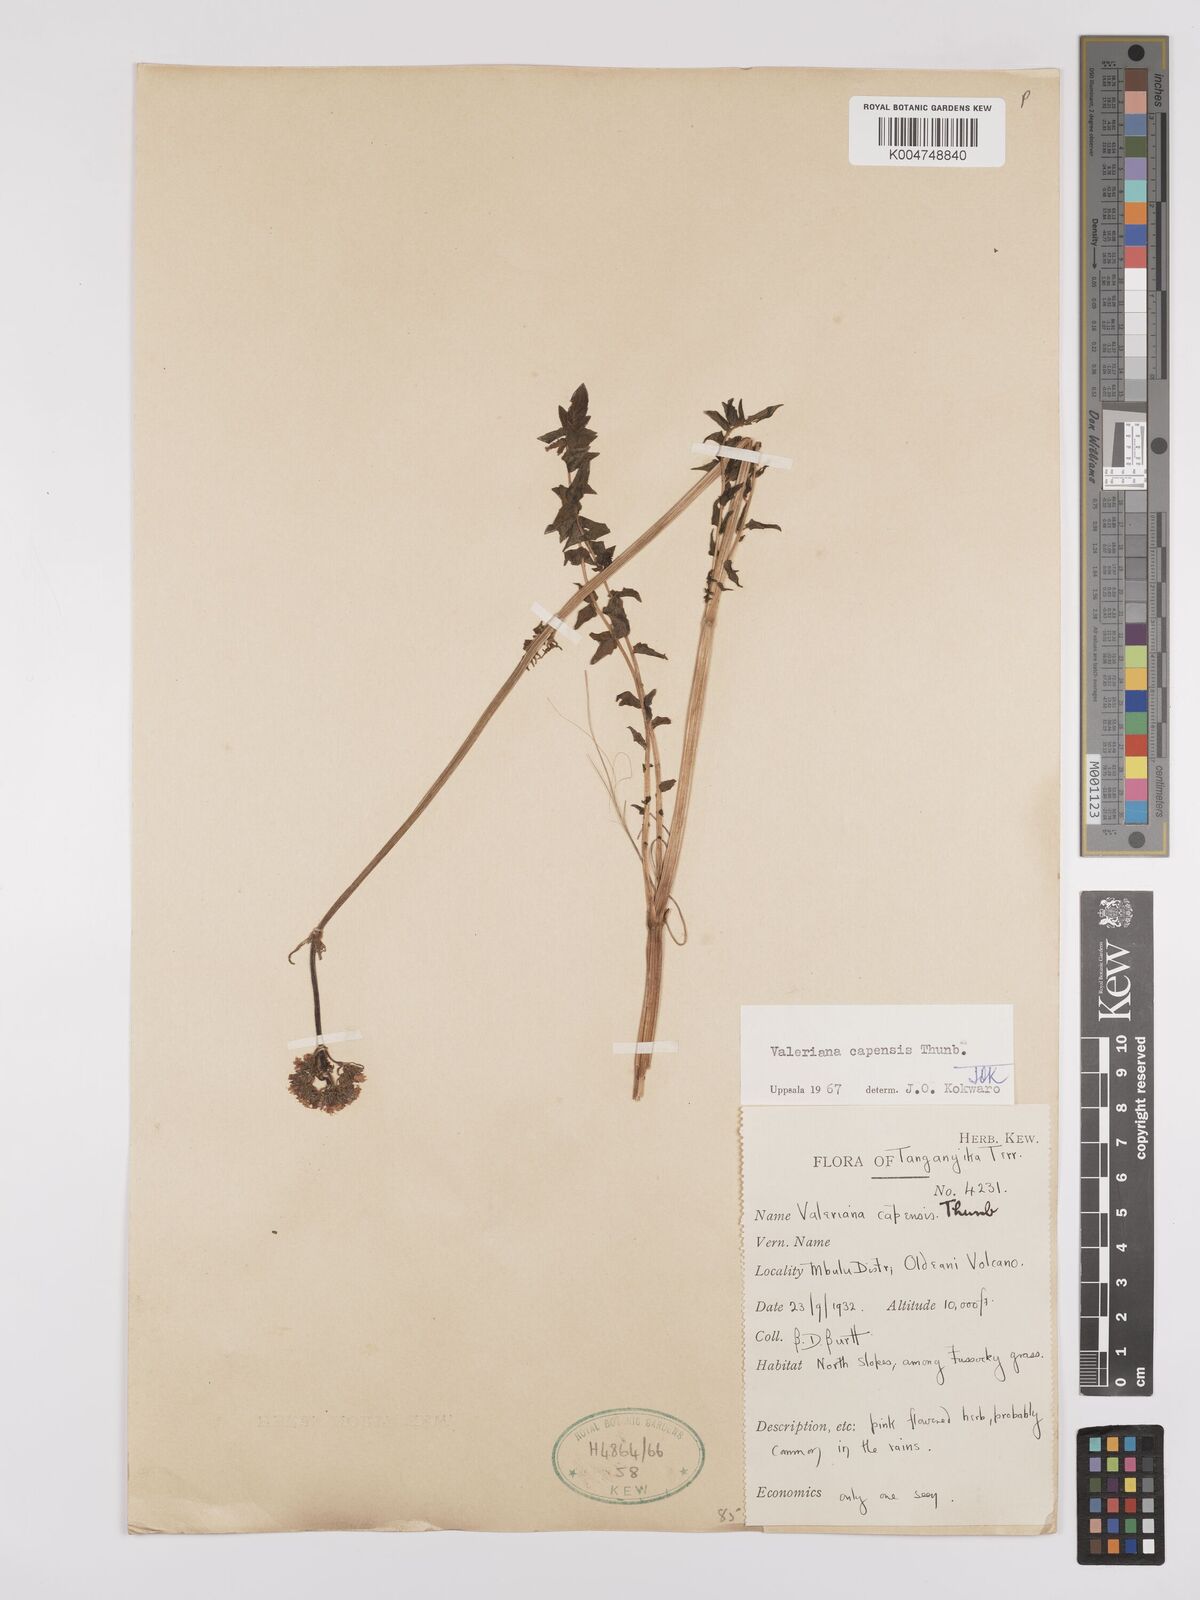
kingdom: Plantae
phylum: Tracheophyta
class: Magnoliopsida
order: Dipsacales
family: Caprifoliaceae
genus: Valeriana
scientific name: Valeriana capensis
